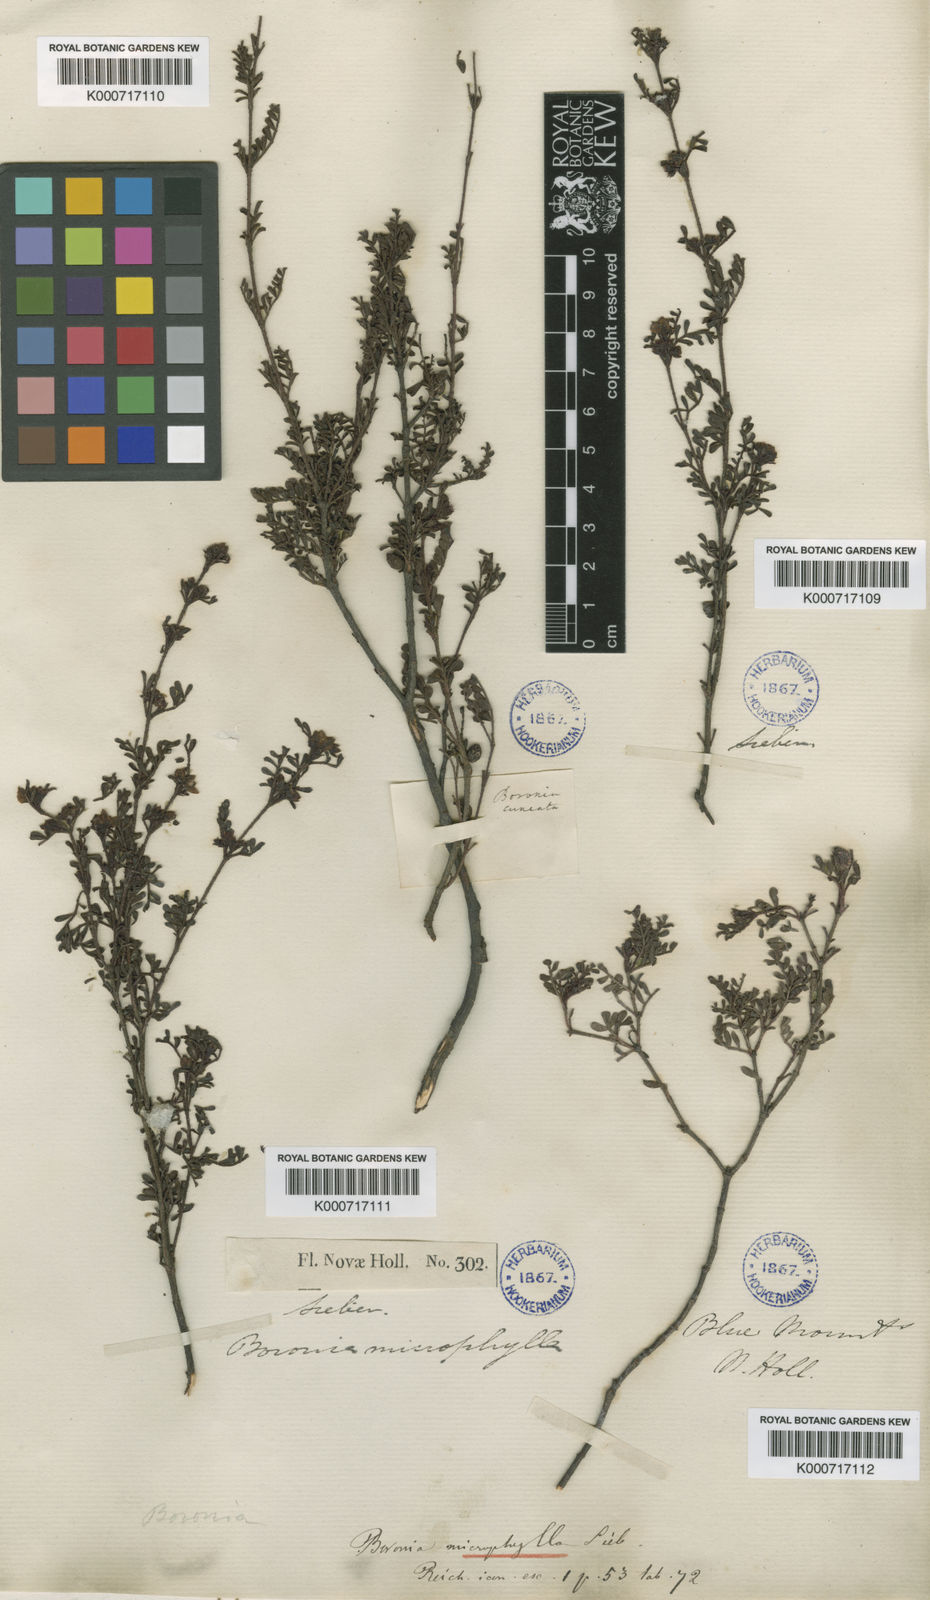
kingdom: Plantae
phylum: Tracheophyta
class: Magnoliopsida
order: Sapindales
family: Rutaceae
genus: Boronia
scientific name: Boronia microphylla
